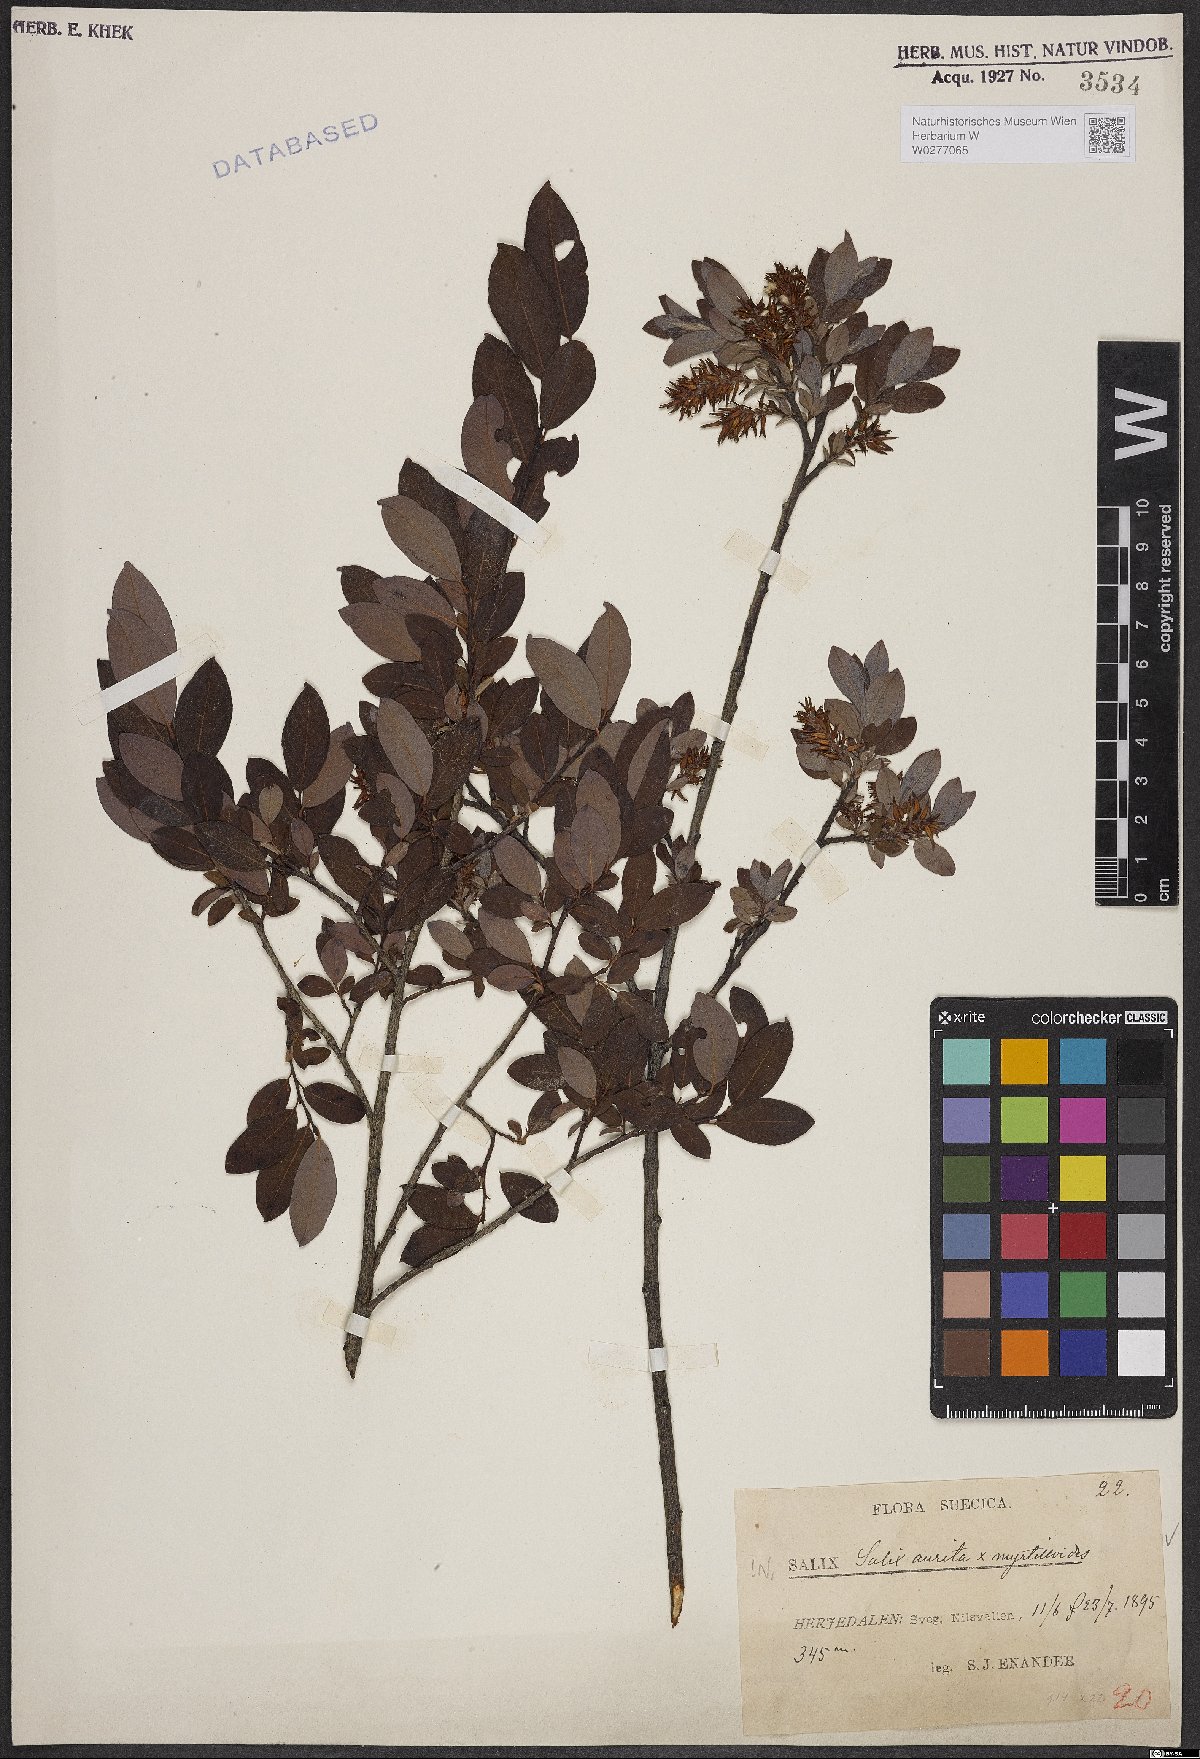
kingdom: Plantae
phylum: Tracheophyta
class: Magnoliopsida
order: Malpighiales
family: Salicaceae
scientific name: Salicaceae
